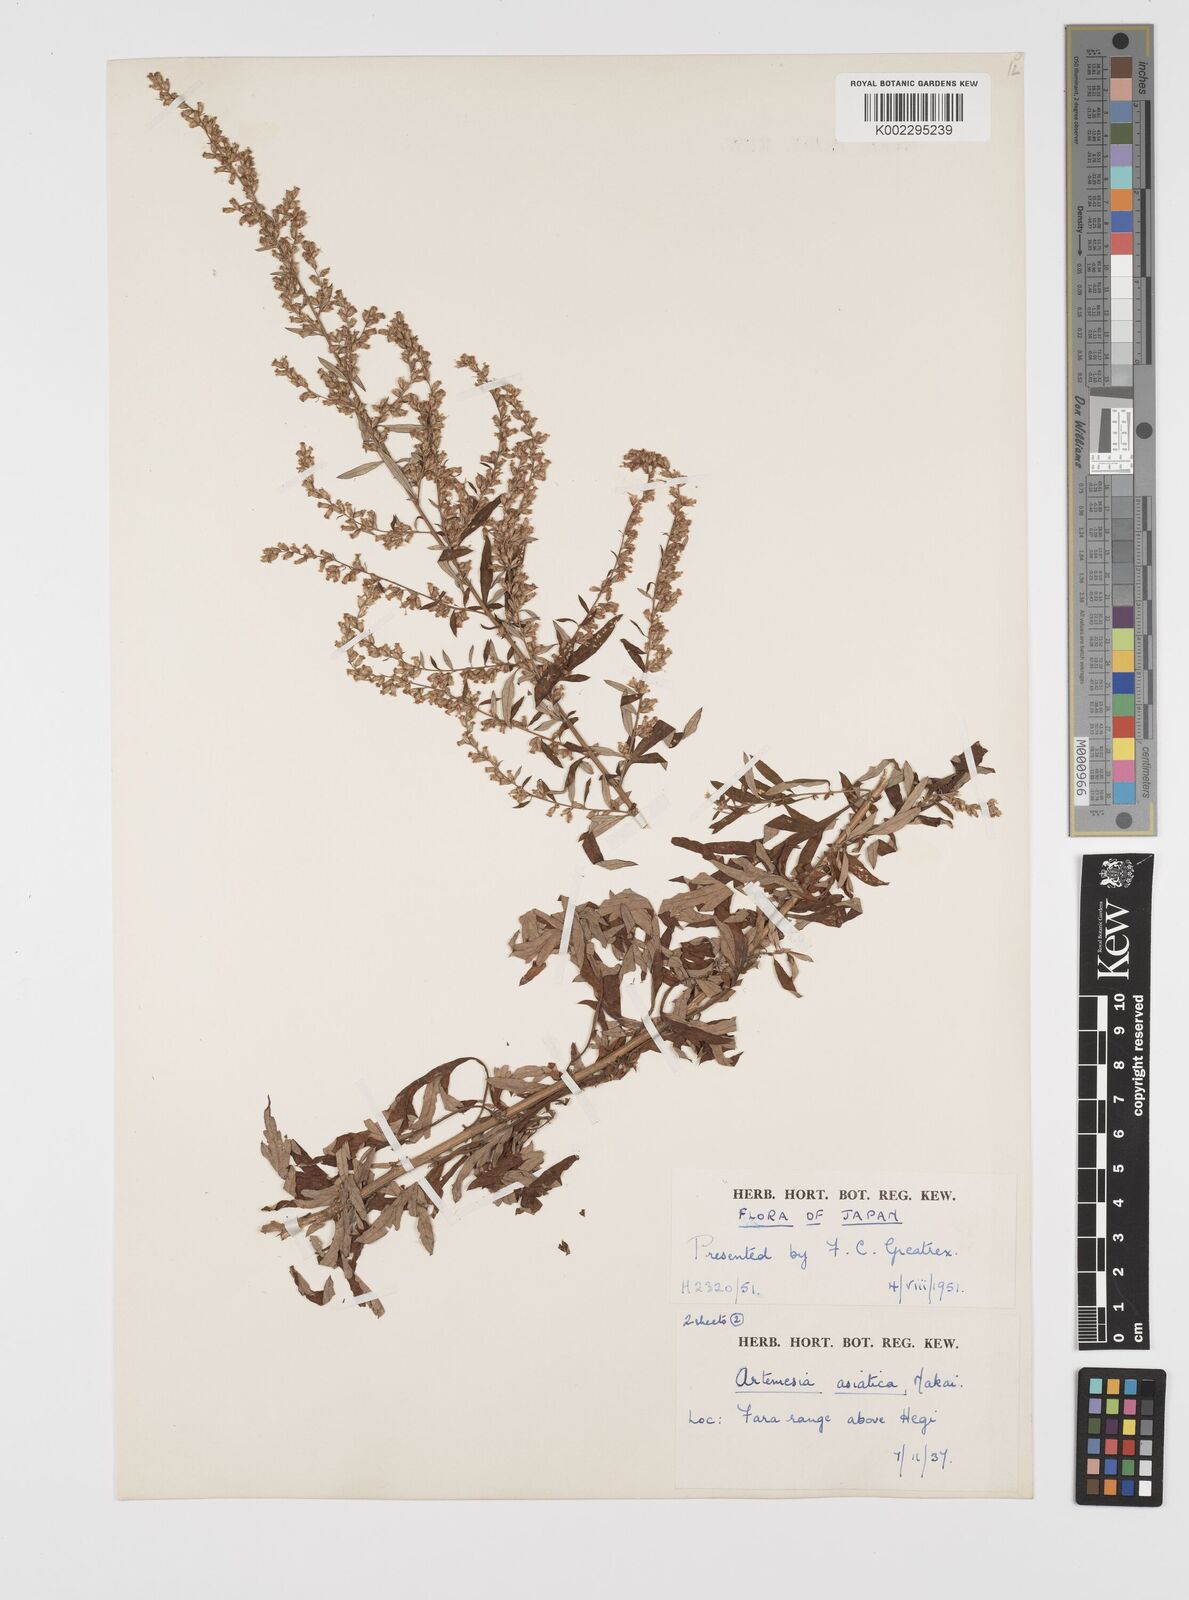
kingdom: Plantae
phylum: Tracheophyta
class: Magnoliopsida
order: Asterales
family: Asteraceae
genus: Artemisia
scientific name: Artemisia indica
